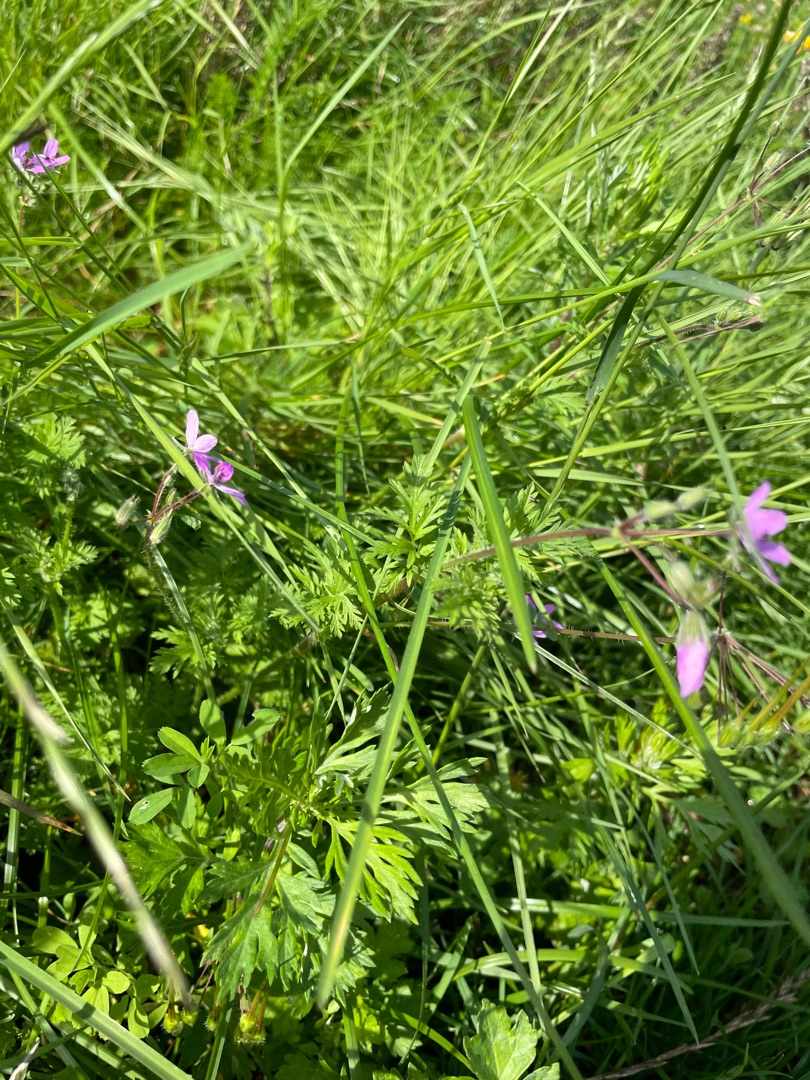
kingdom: Plantae
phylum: Tracheophyta
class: Magnoliopsida
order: Geraniales
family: Geraniaceae
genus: Erodium
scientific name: Erodium cicutarium
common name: Hejrenæb
